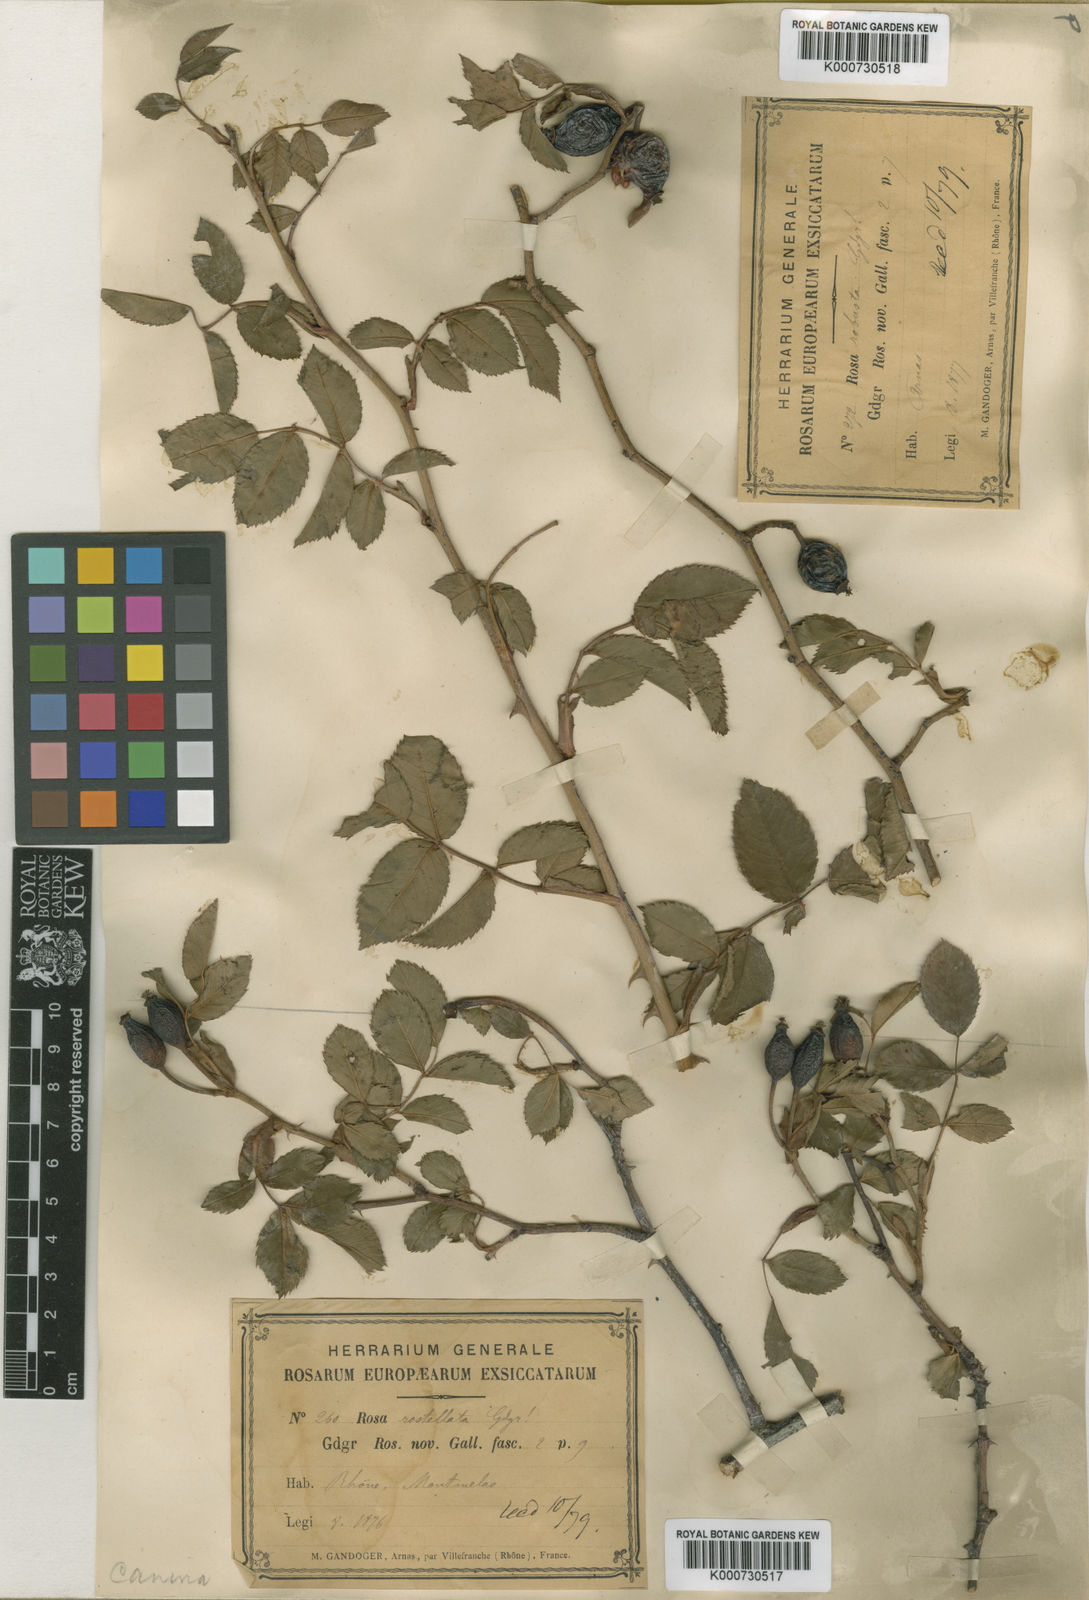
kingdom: Plantae
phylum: Tracheophyta
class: Magnoliopsida
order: Rosales
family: Rosaceae
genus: Rosa
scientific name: Rosa canina
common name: Dog rose
